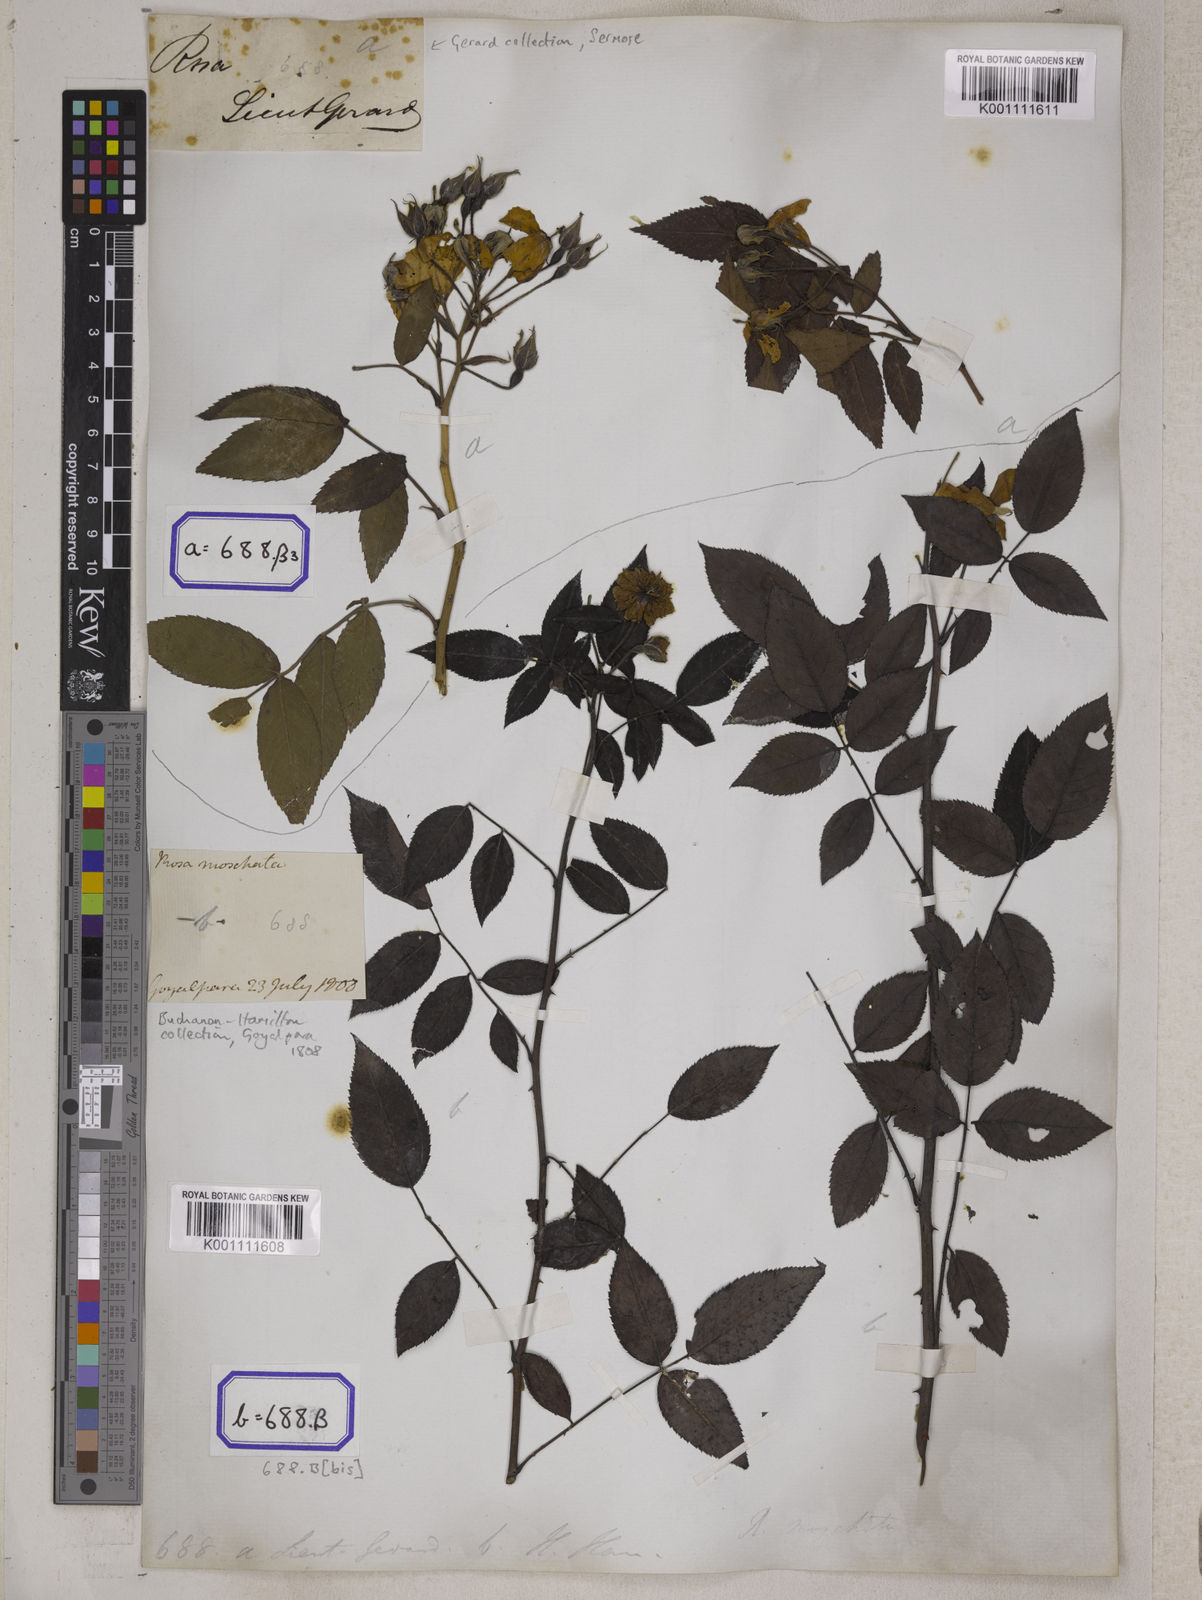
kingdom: Plantae
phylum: Tracheophyta
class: Magnoliopsida
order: Rosales
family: Rosaceae
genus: Rosa
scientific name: Rosa
